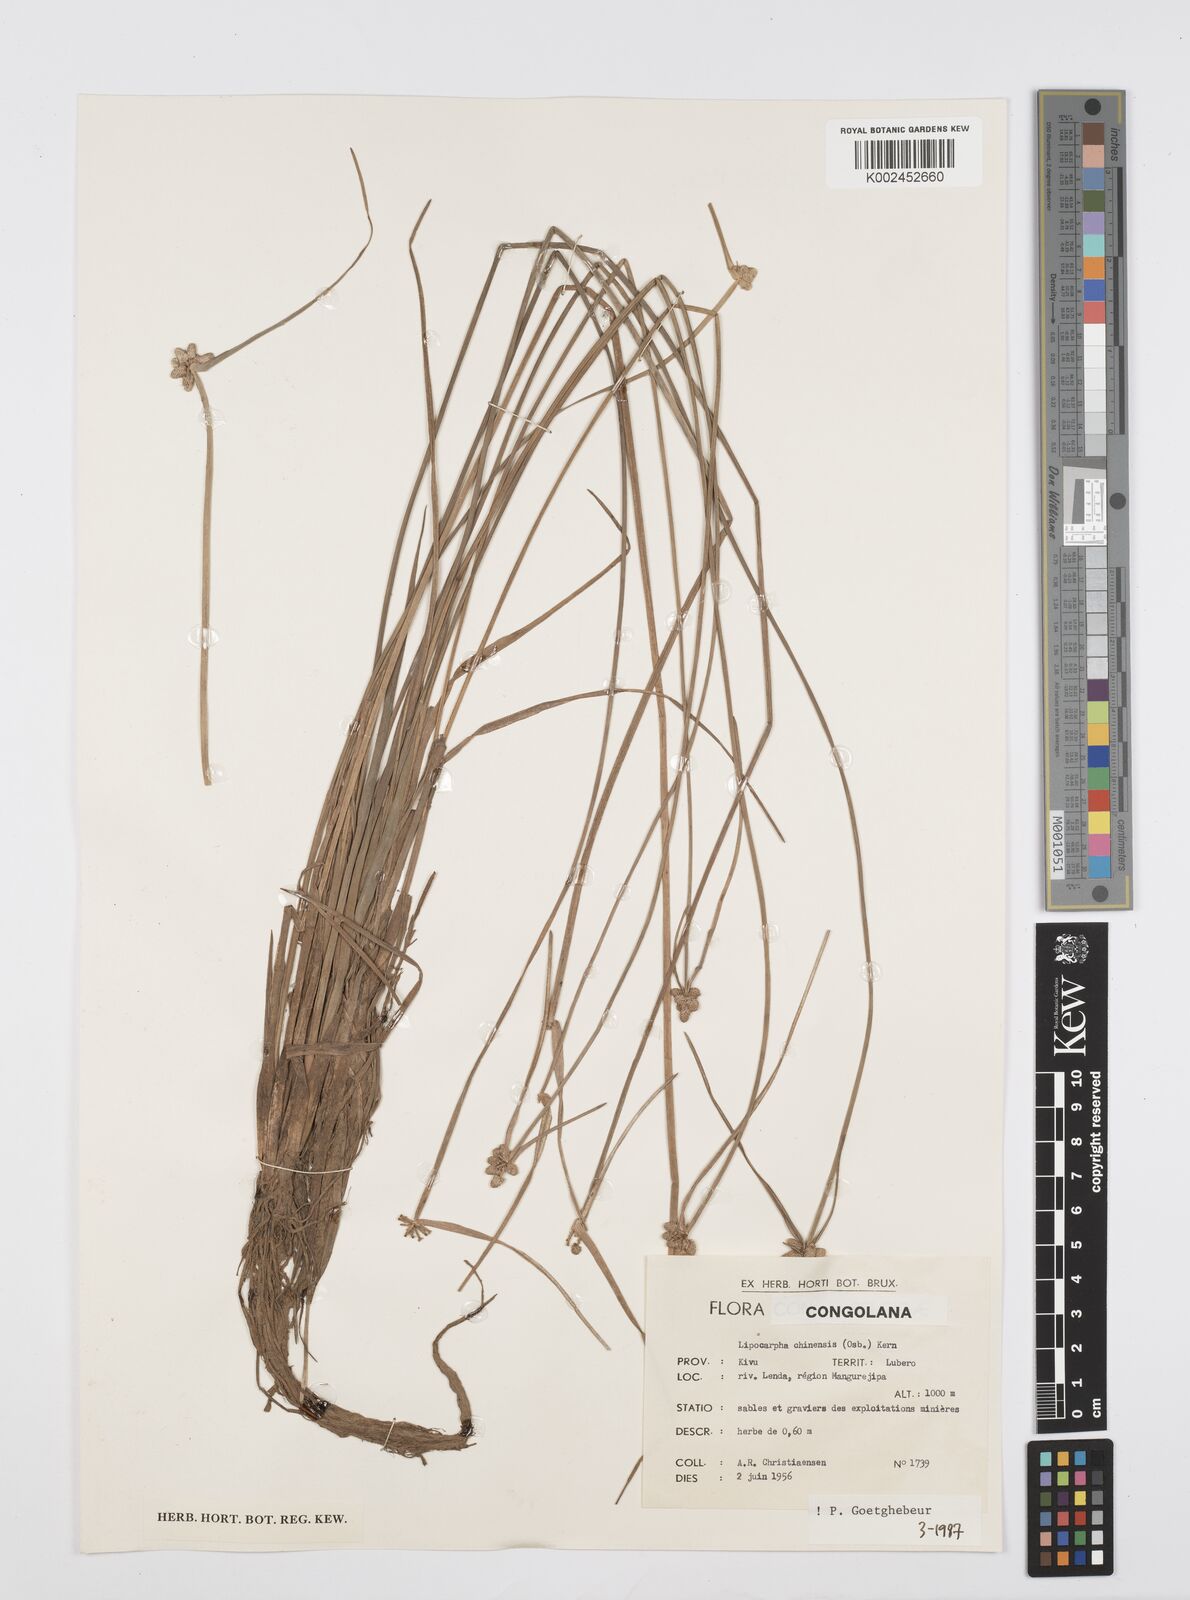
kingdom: Plantae
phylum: Tracheophyta
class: Liliopsida
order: Poales
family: Cyperaceae
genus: Cyperus
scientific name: Cyperus albescens
